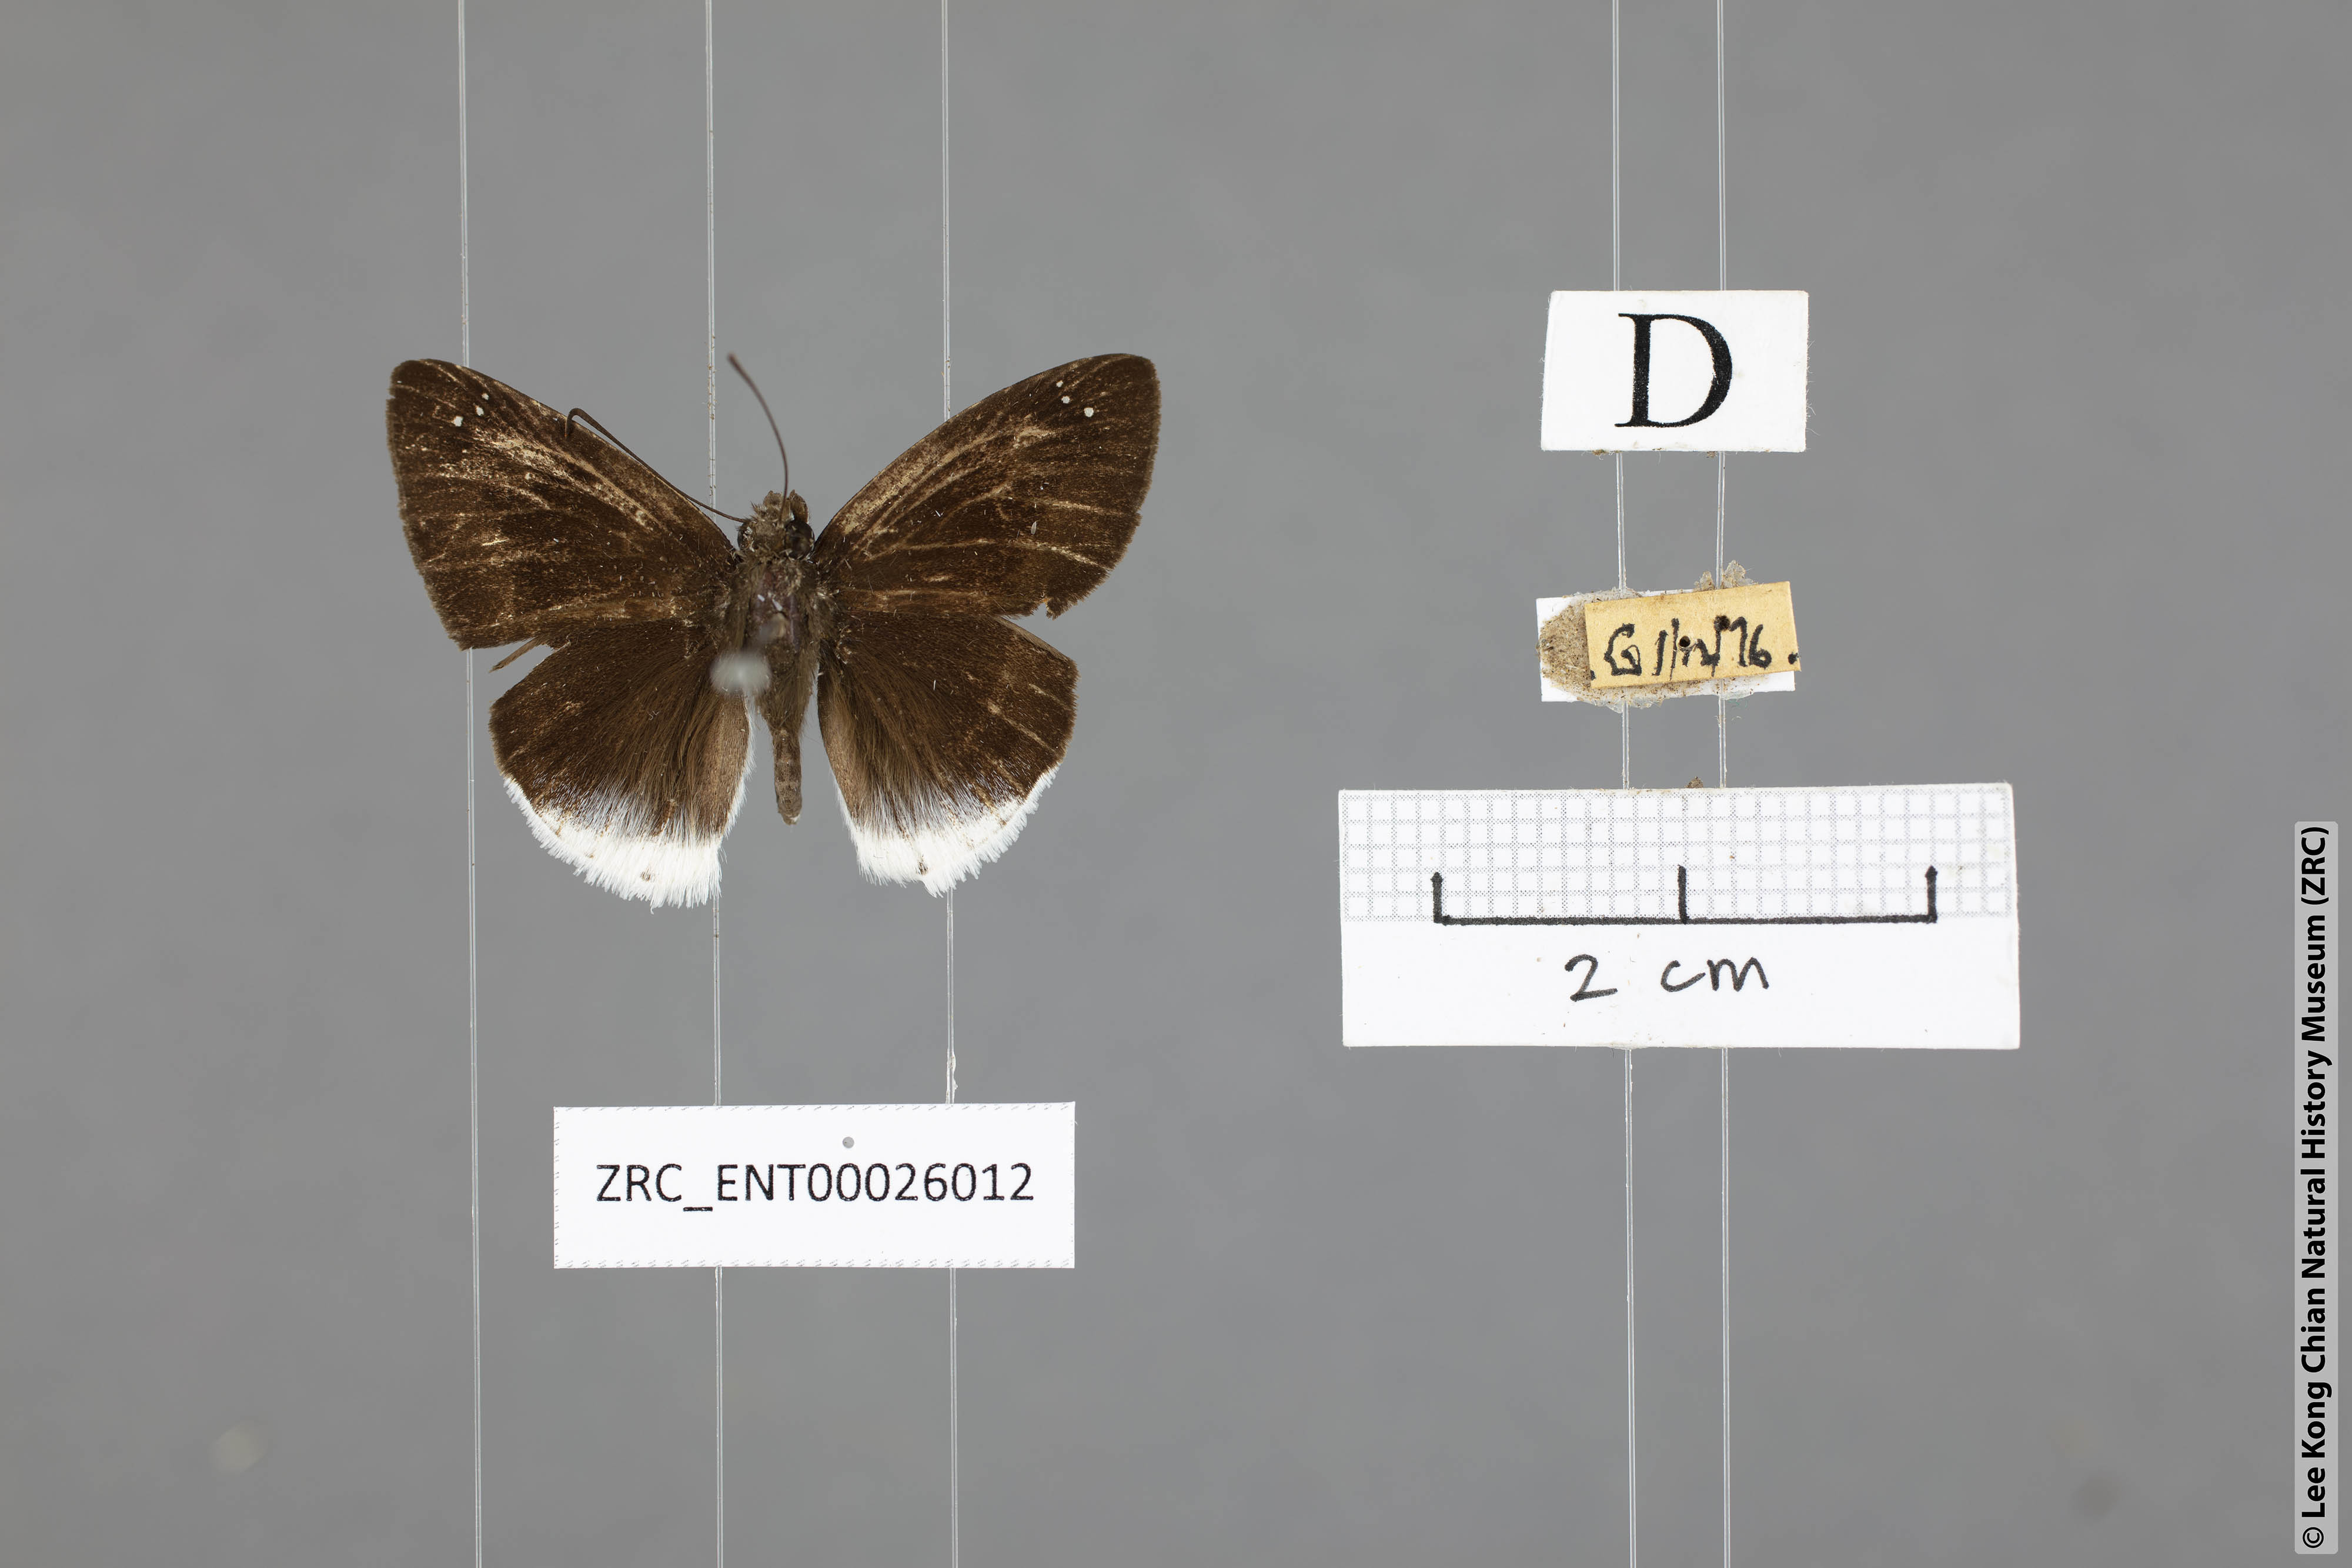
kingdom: Animalia
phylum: Arthropoda
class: Insecta
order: Lepidoptera
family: Hesperiidae
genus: Tagiades
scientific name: Tagiades lavata
